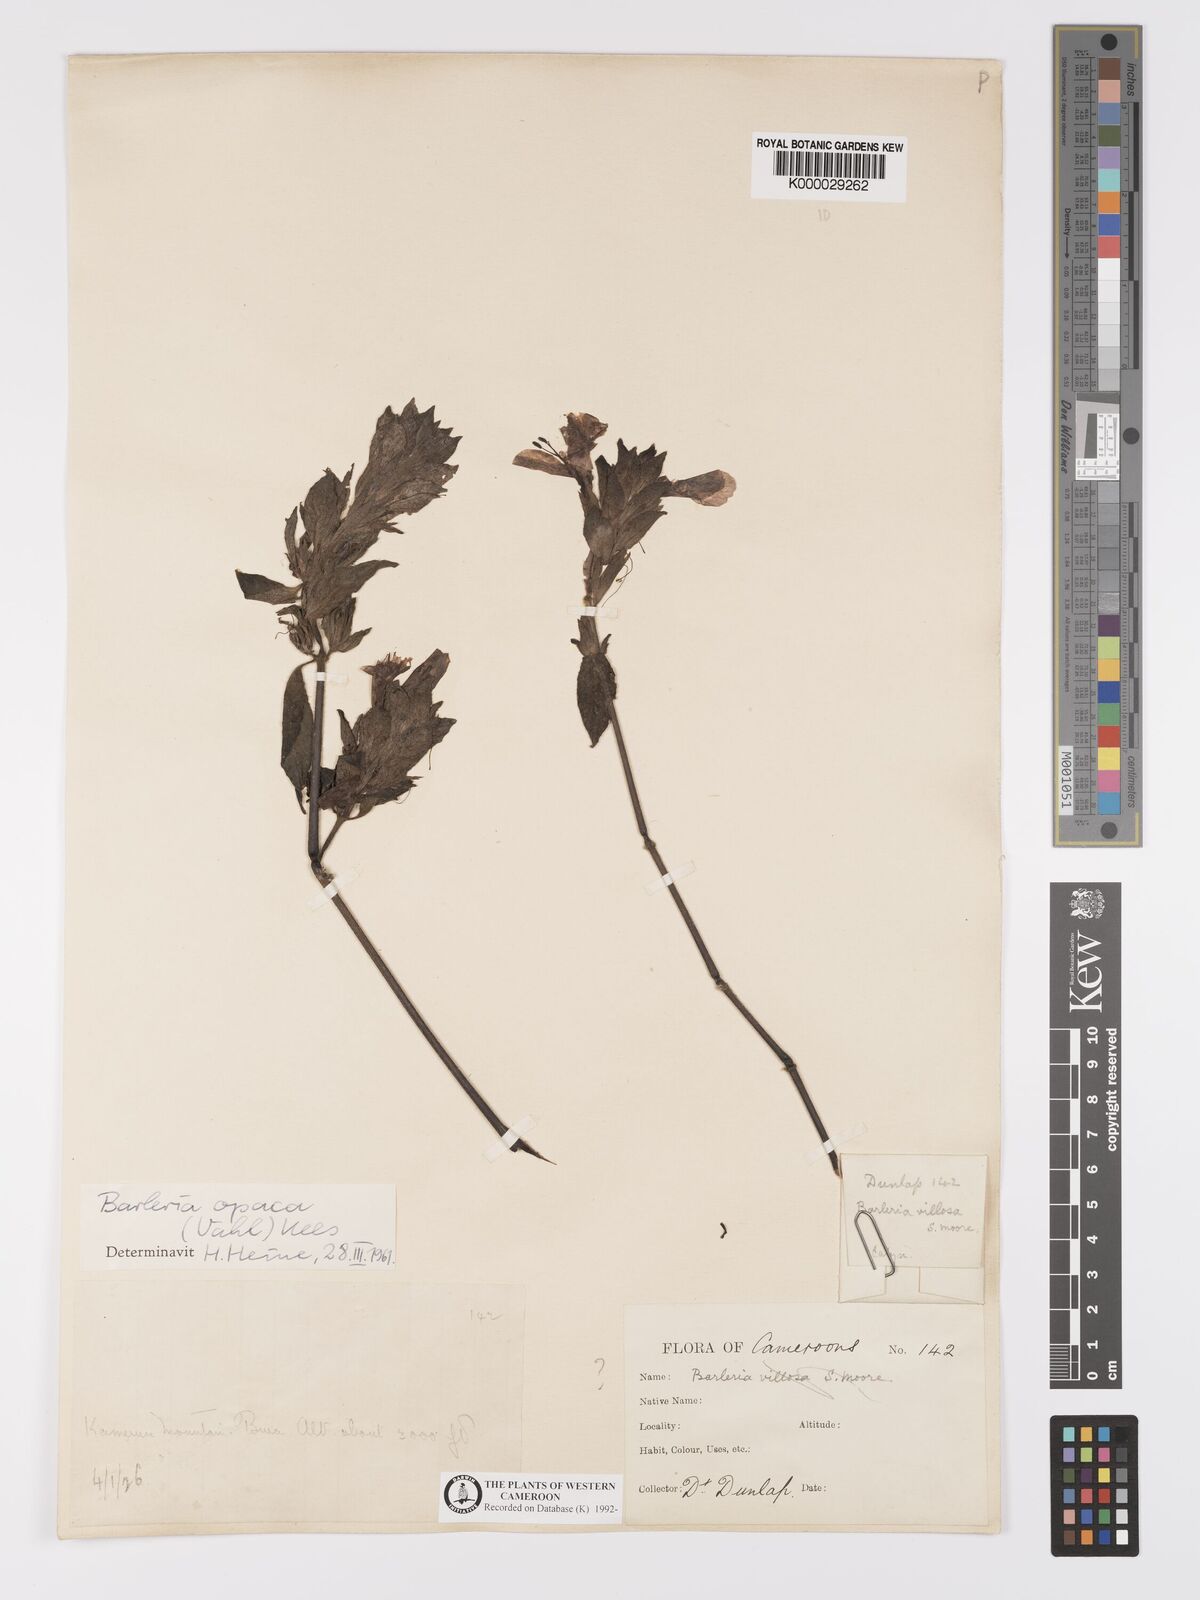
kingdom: Plantae
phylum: Tracheophyta
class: Magnoliopsida
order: Lamiales
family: Acanthaceae
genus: Barleria
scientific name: Barleria opaca
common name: Kwahu
